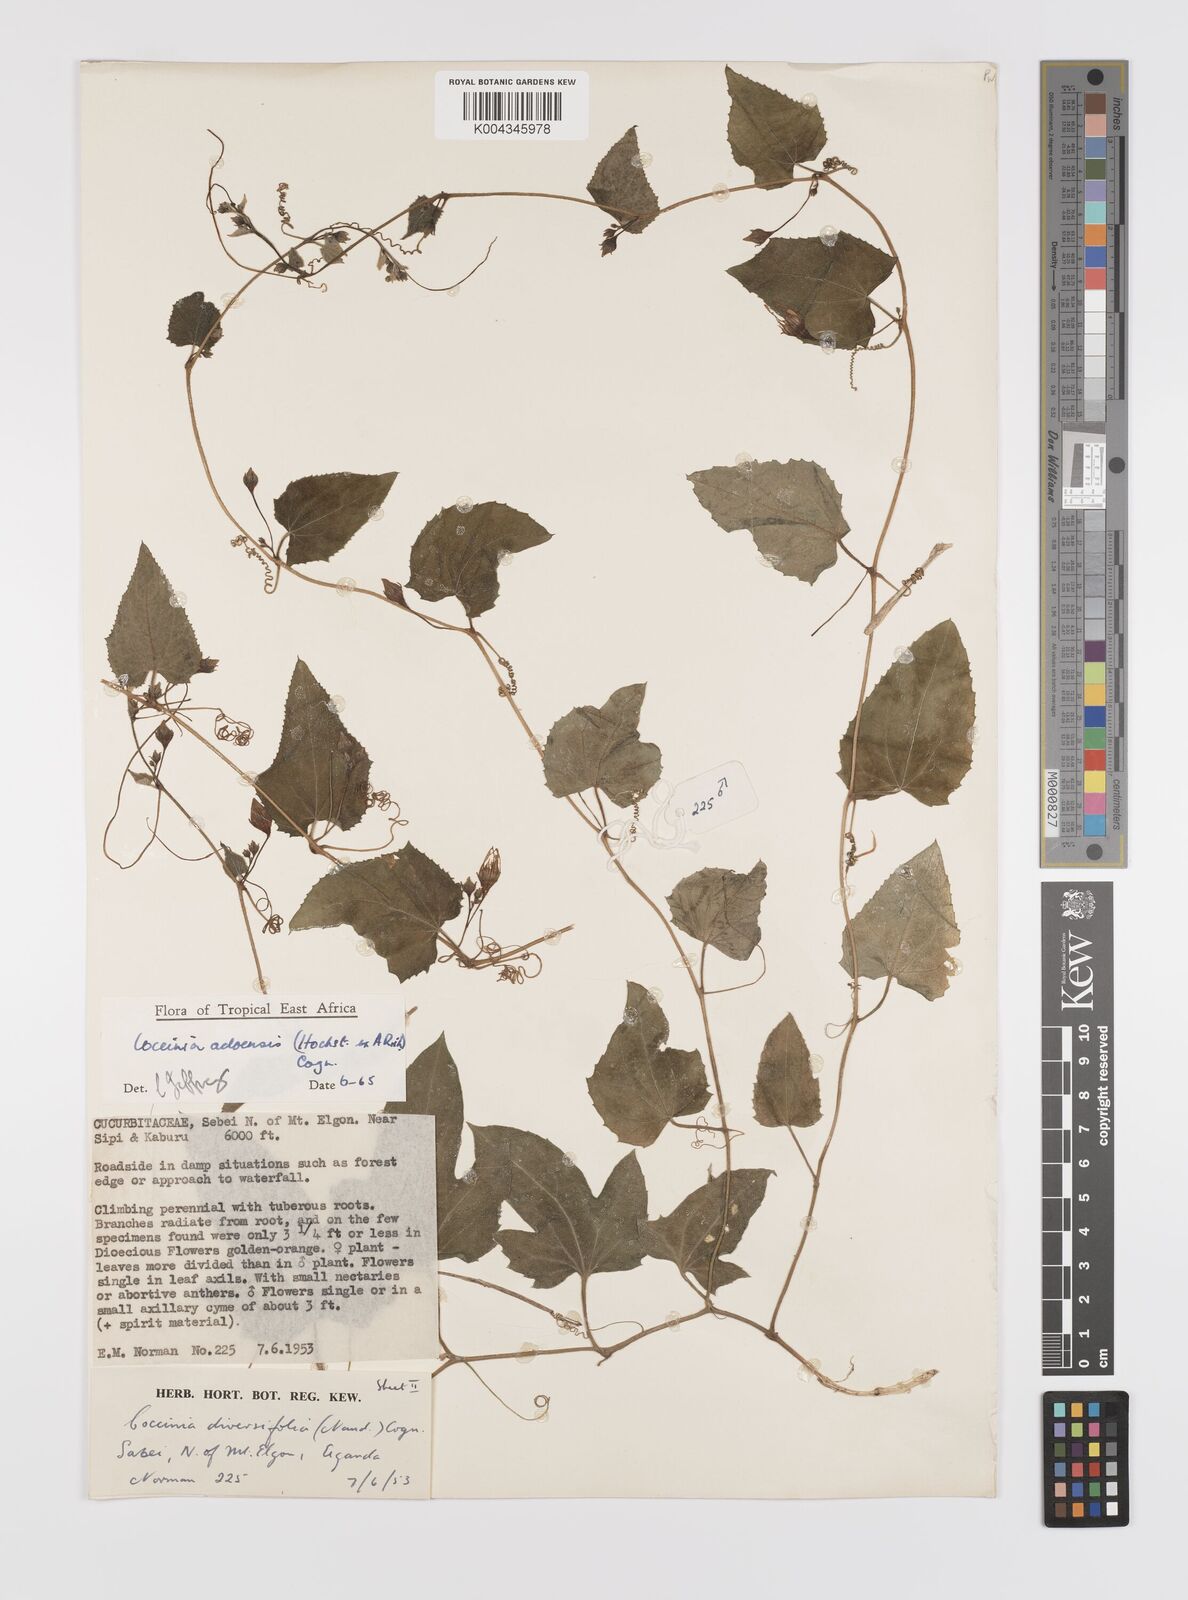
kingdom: Plantae
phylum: Tracheophyta
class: Magnoliopsida
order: Cucurbitales
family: Cucurbitaceae
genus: Coccinia
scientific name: Coccinia adoensis
